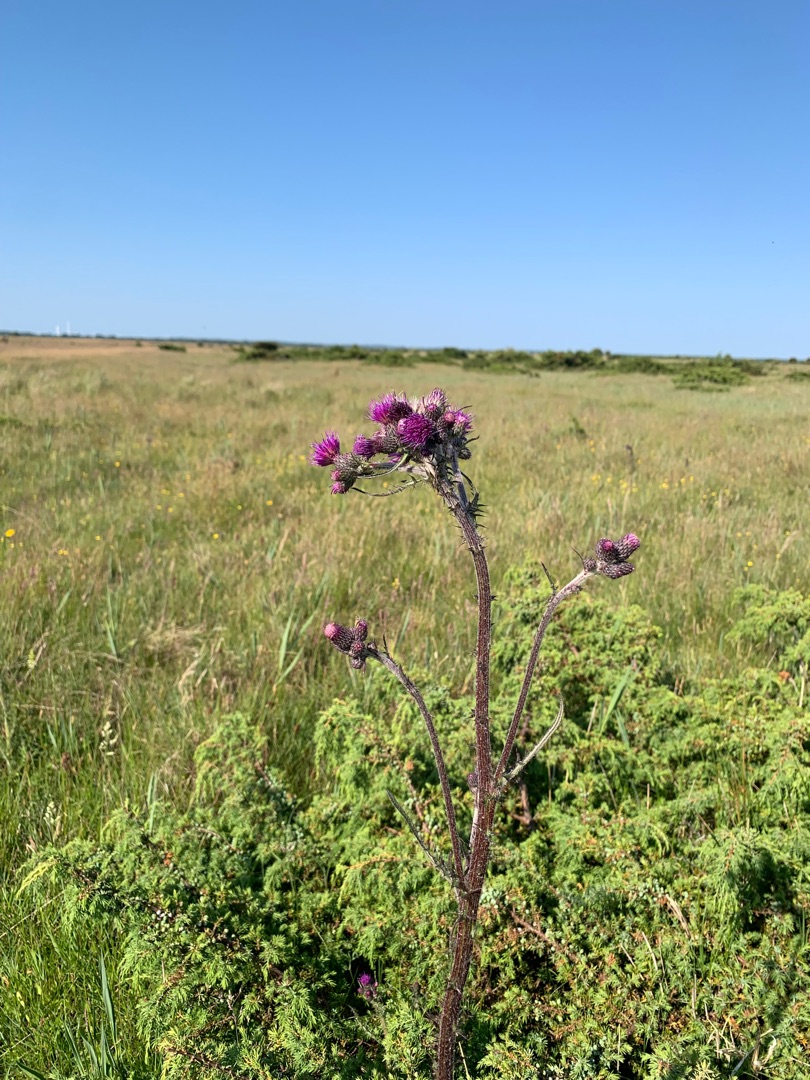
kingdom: Plantae
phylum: Tracheophyta
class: Magnoliopsida
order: Asterales
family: Asteraceae
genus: Cirsium
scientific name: Cirsium palustre
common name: Kær-tidsel
